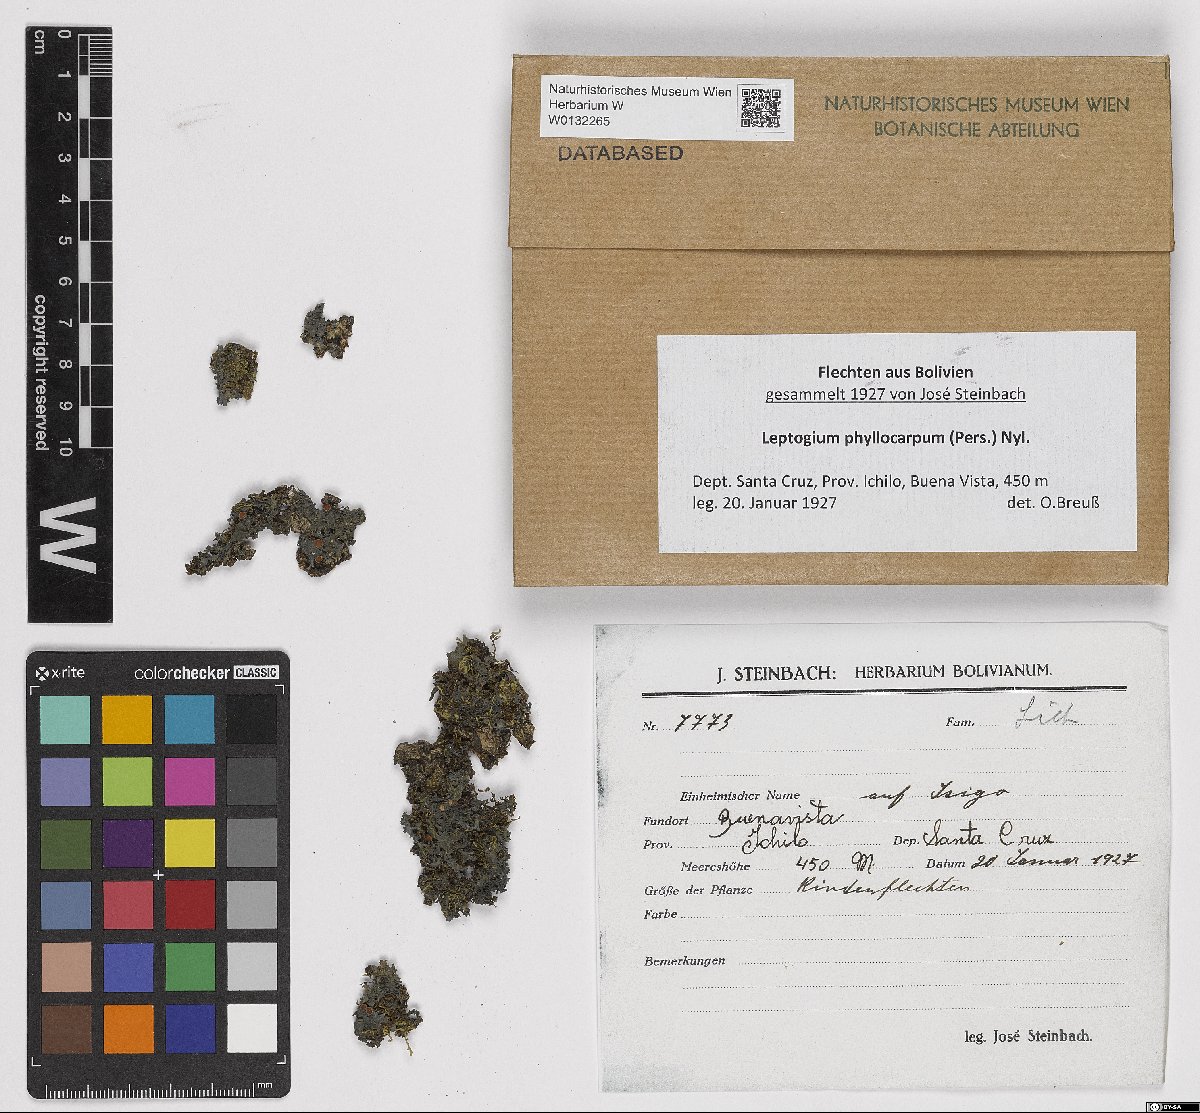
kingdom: Fungi
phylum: Ascomycota
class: Lecanoromycetes
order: Peltigerales
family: Collemataceae
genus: Leptogium
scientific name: Leptogium phyllocarpum
